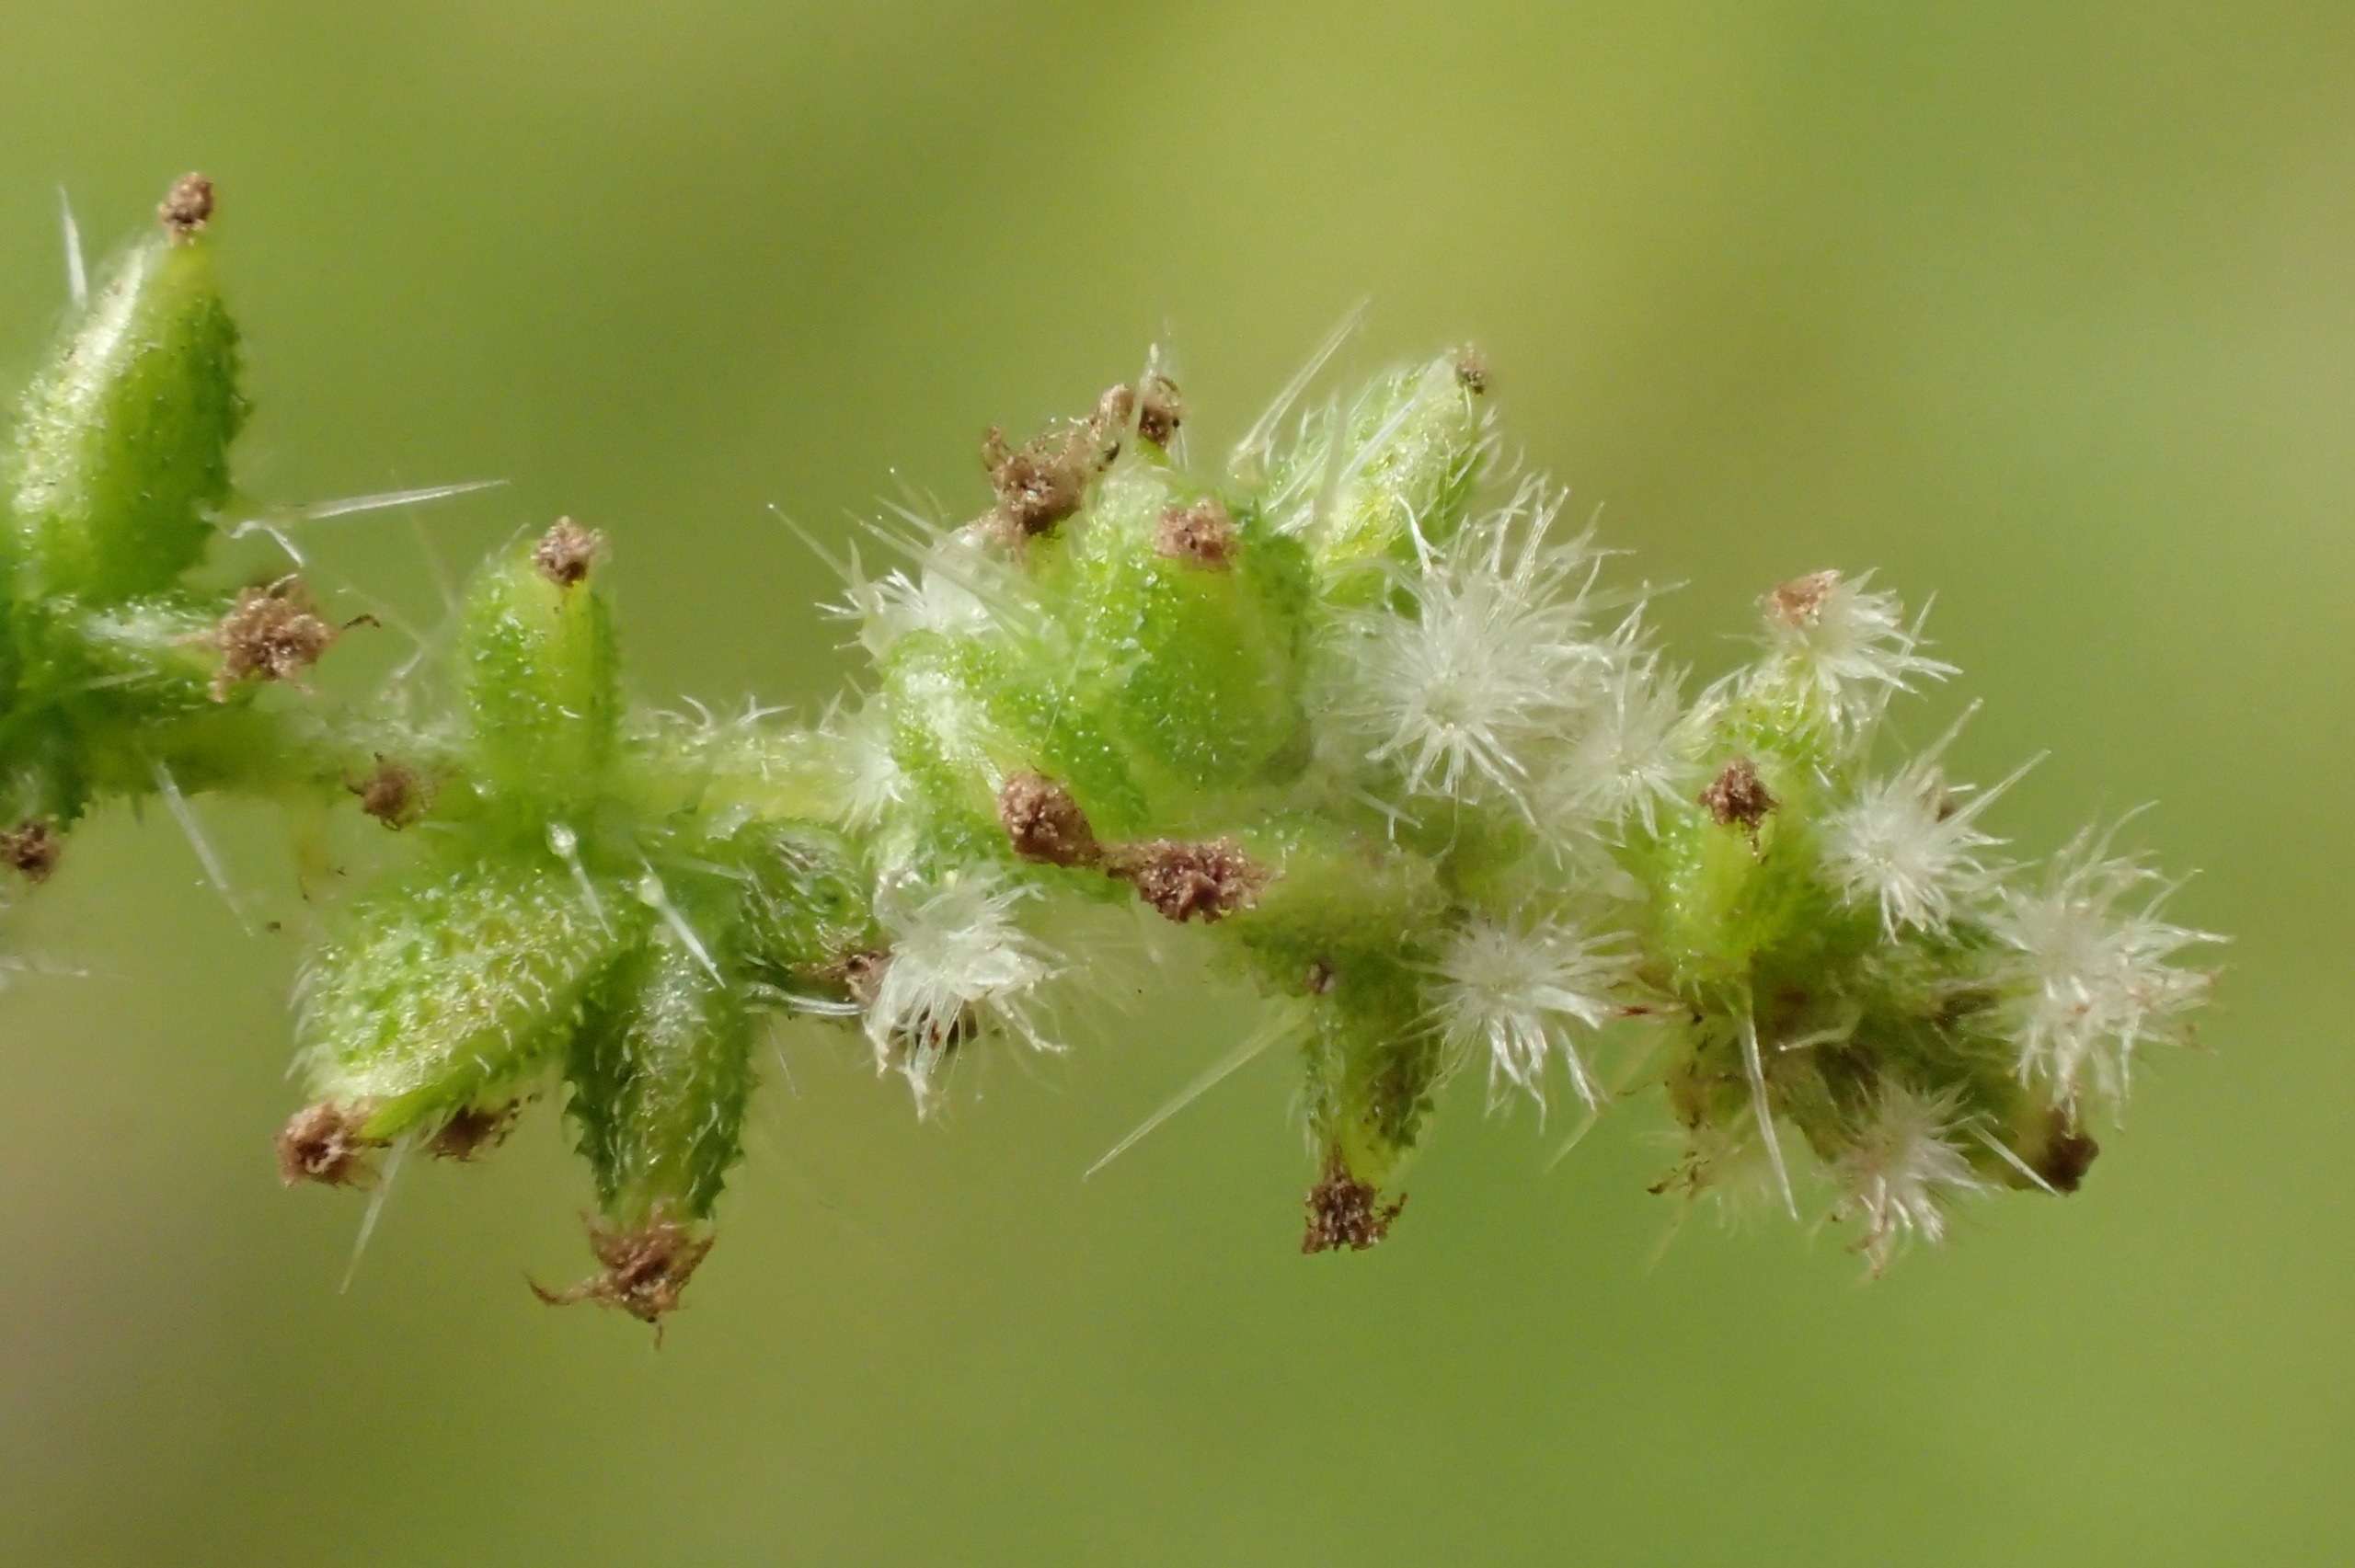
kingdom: Plantae
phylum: Tracheophyta
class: Magnoliopsida
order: Rosales
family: Urticaceae
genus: Urtica
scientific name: Urtica dioica
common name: Stor nælde
